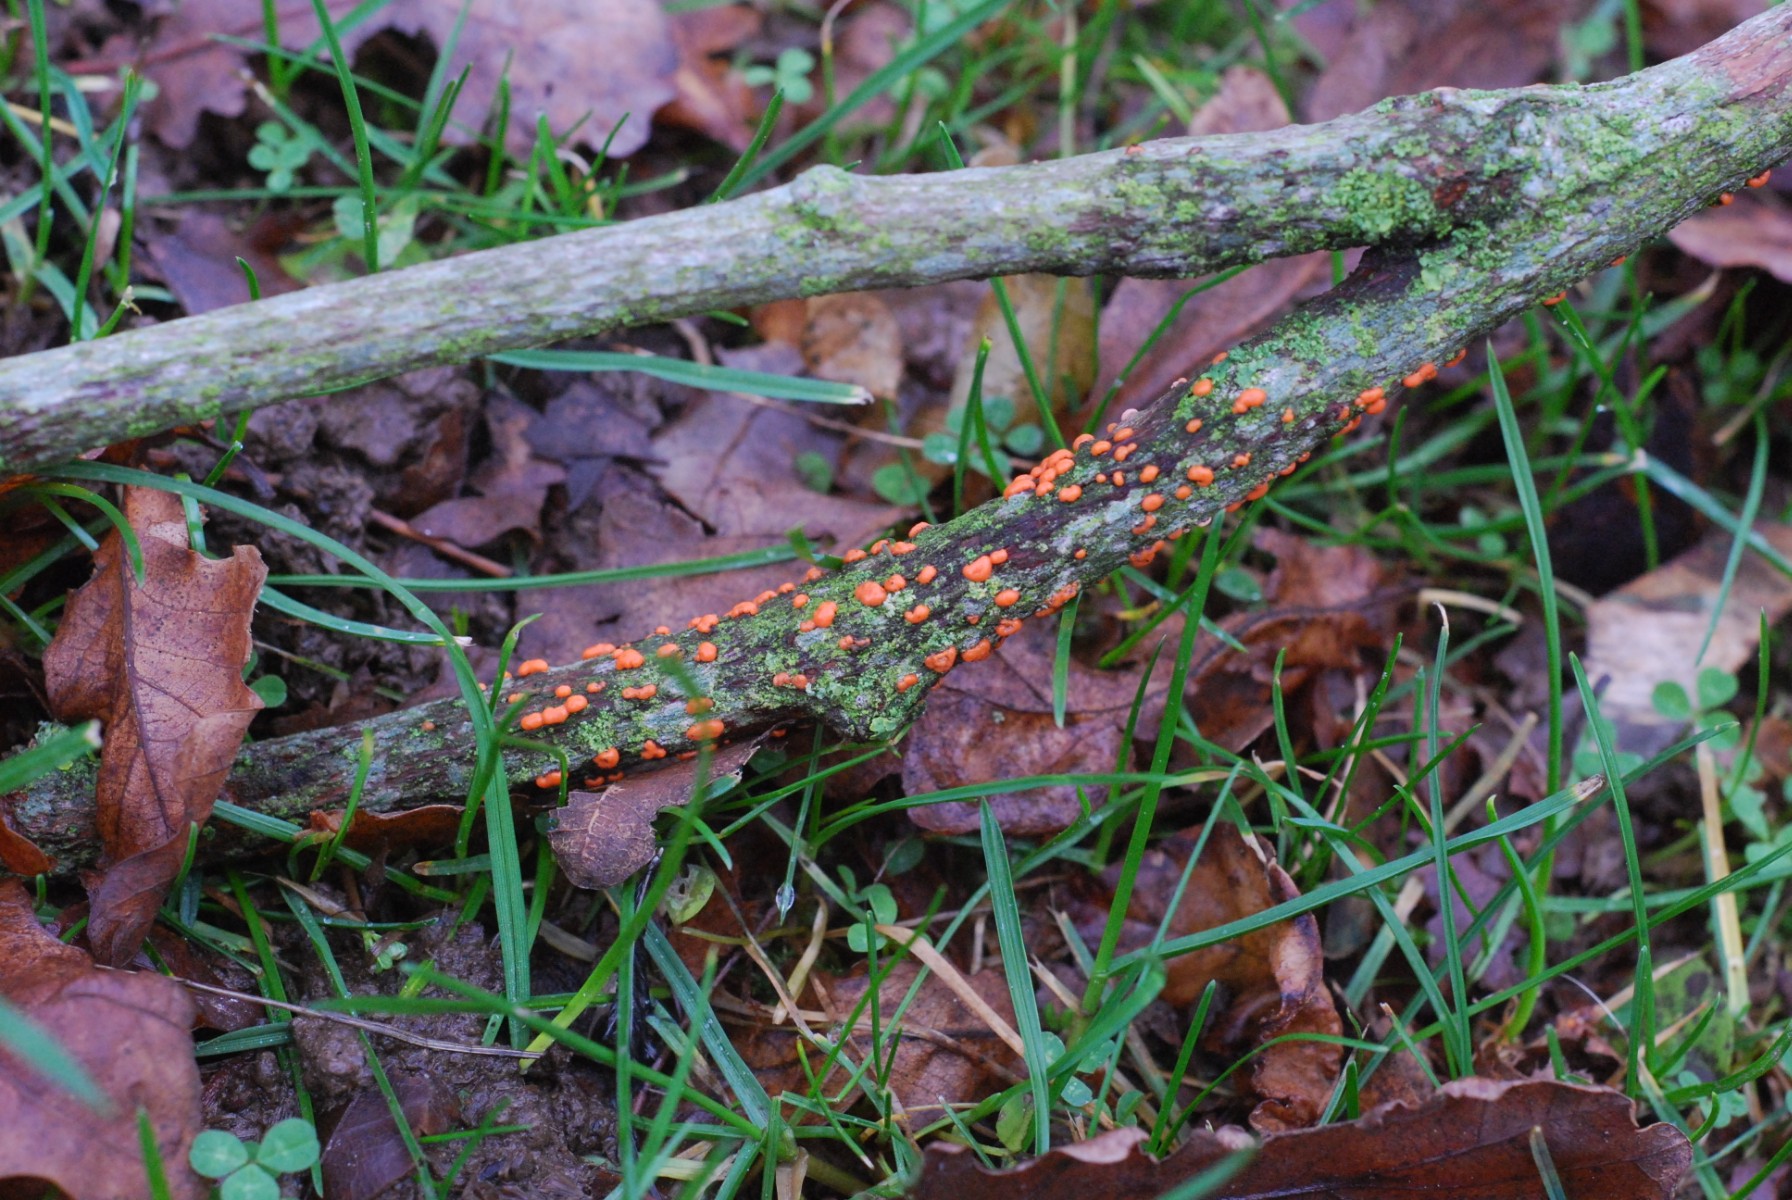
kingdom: Fungi
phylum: Ascomycota
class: Sordariomycetes
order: Hypocreales
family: Nectriaceae
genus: Nectria
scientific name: Nectria cinnabarina
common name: almindelig cinnobersvamp
